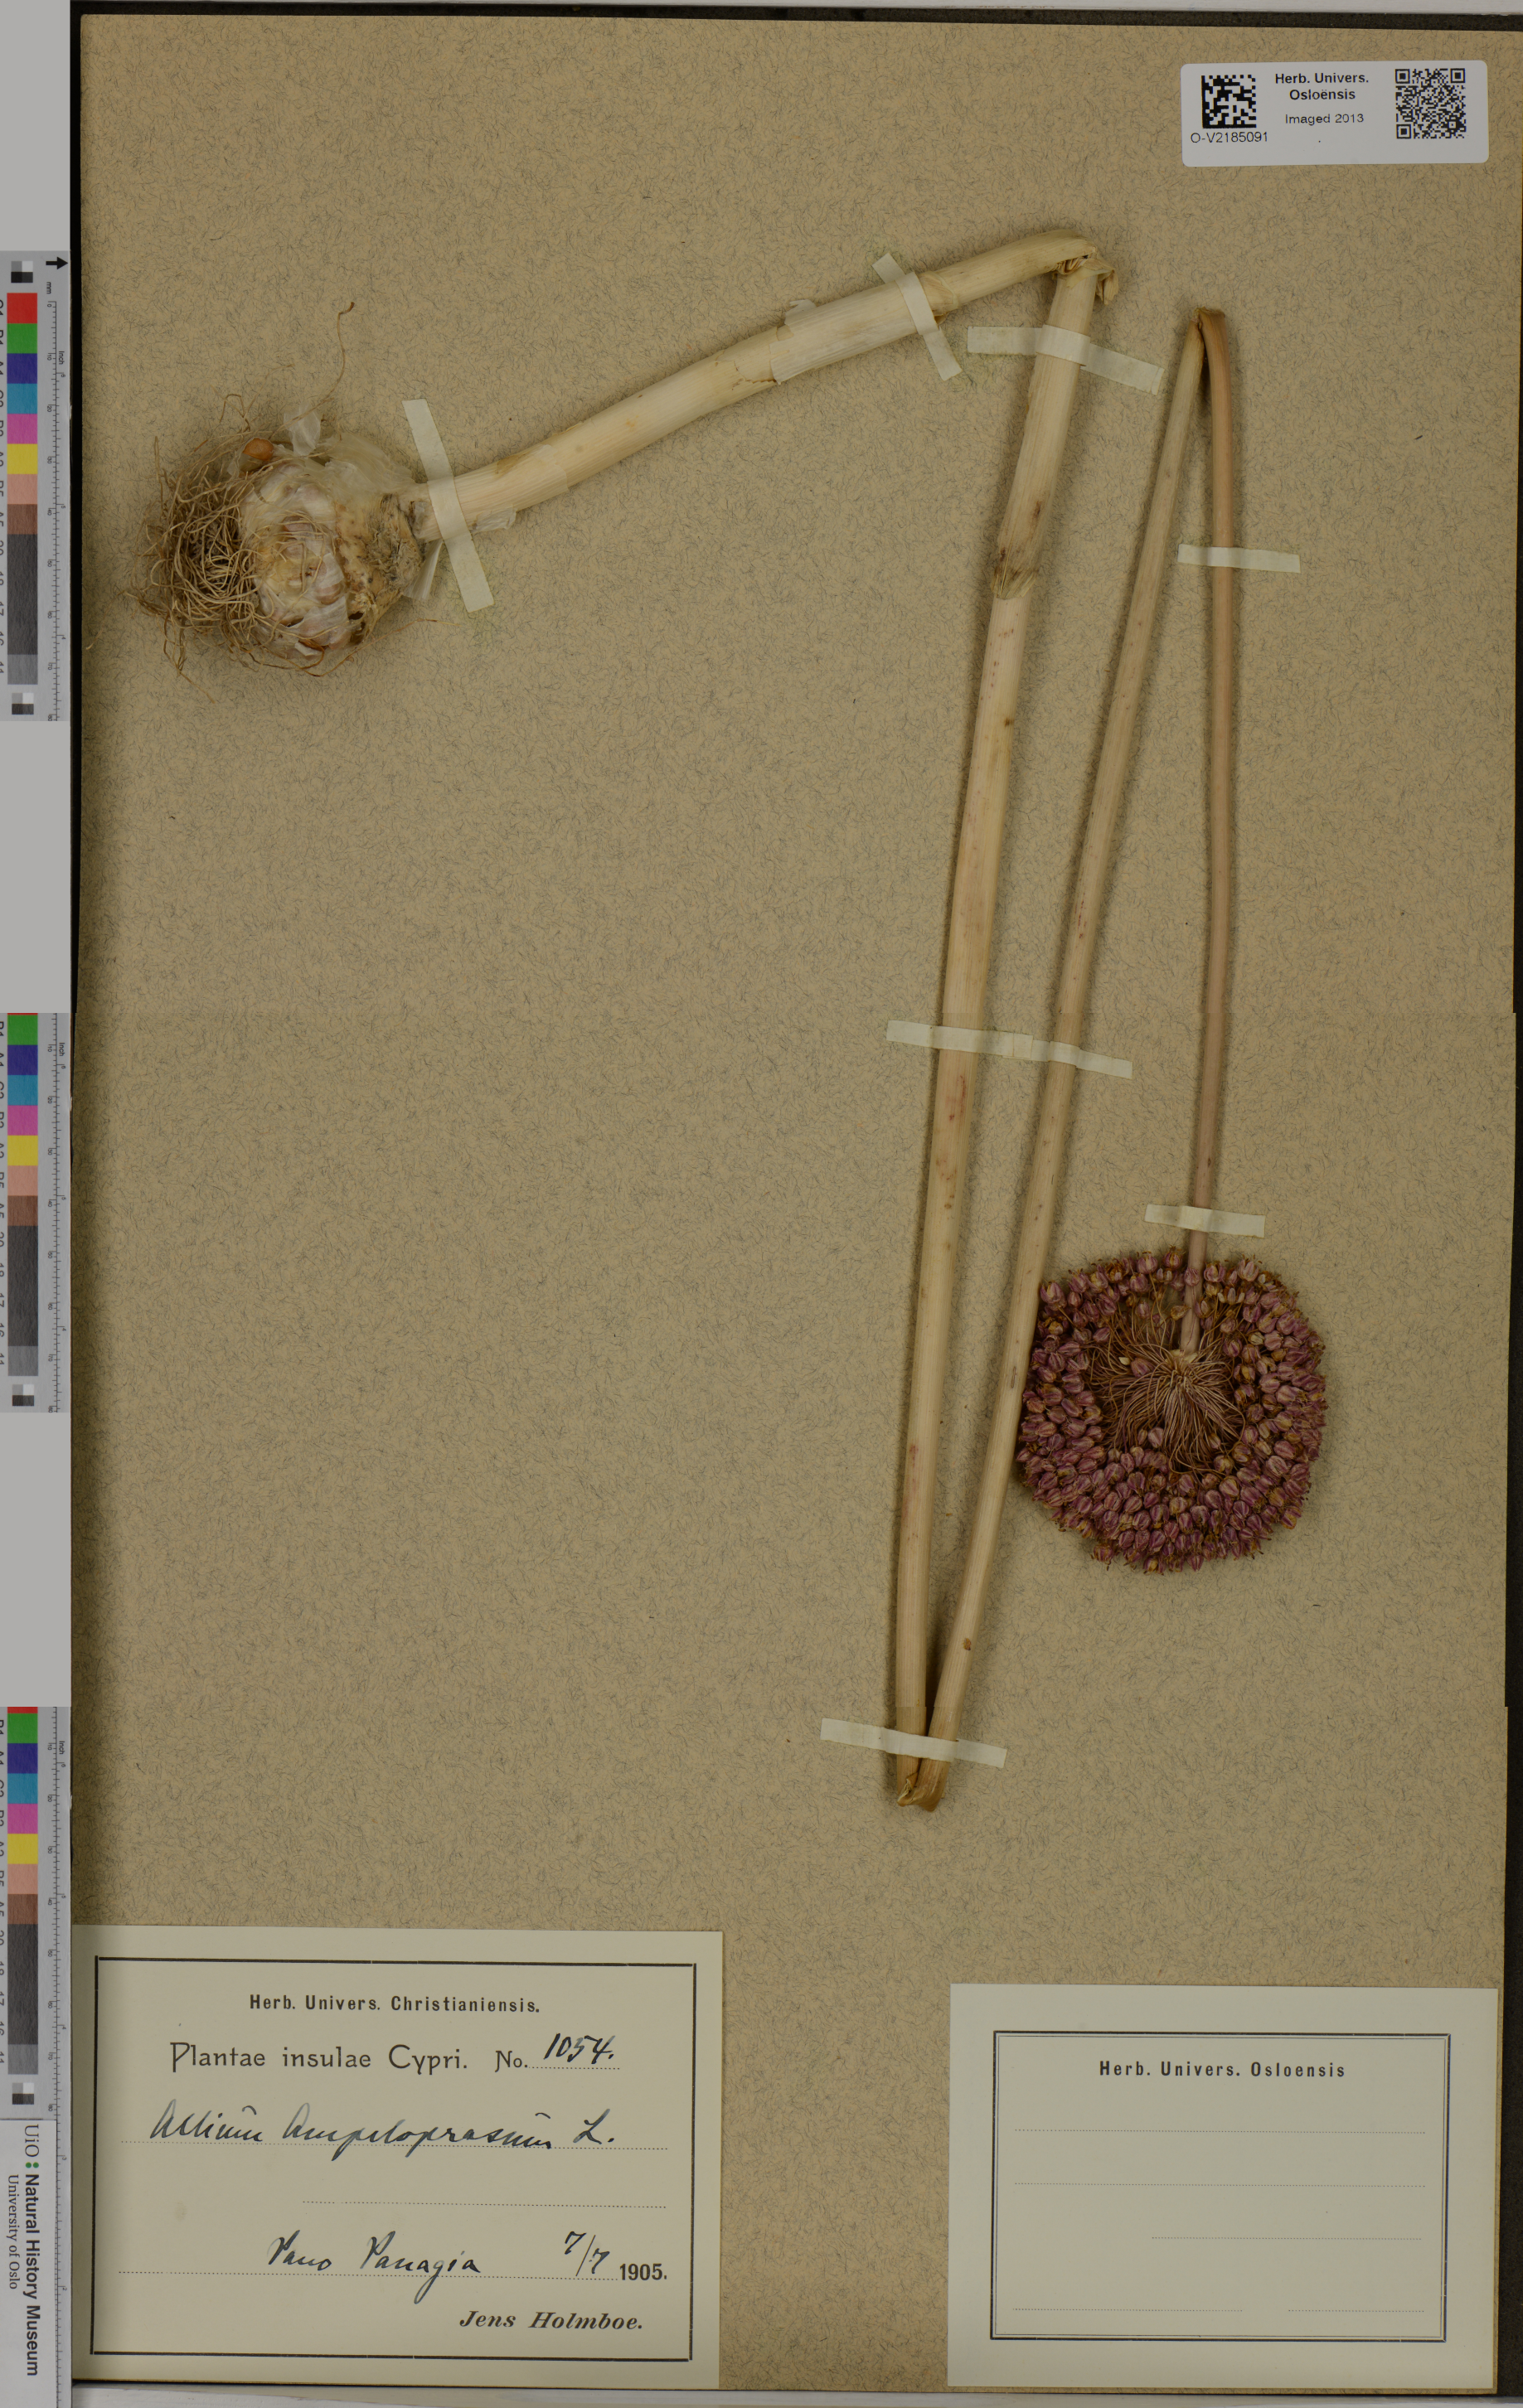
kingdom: Plantae
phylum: Tracheophyta
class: Liliopsida
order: Asparagales
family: Amaryllidaceae
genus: Allium
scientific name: Allium ampeloprasum
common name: Wild leek
